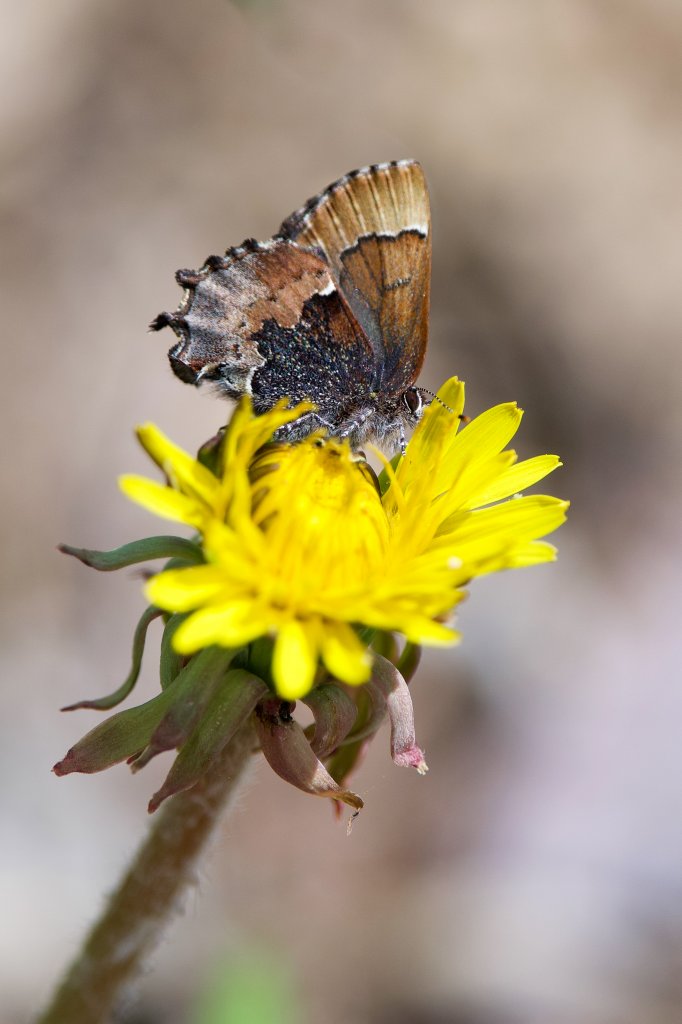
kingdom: Animalia
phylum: Arthropoda
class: Insecta
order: Lepidoptera
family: Lycaenidae
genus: Incisalia
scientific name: Incisalia henrici
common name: Henry's Elfin
